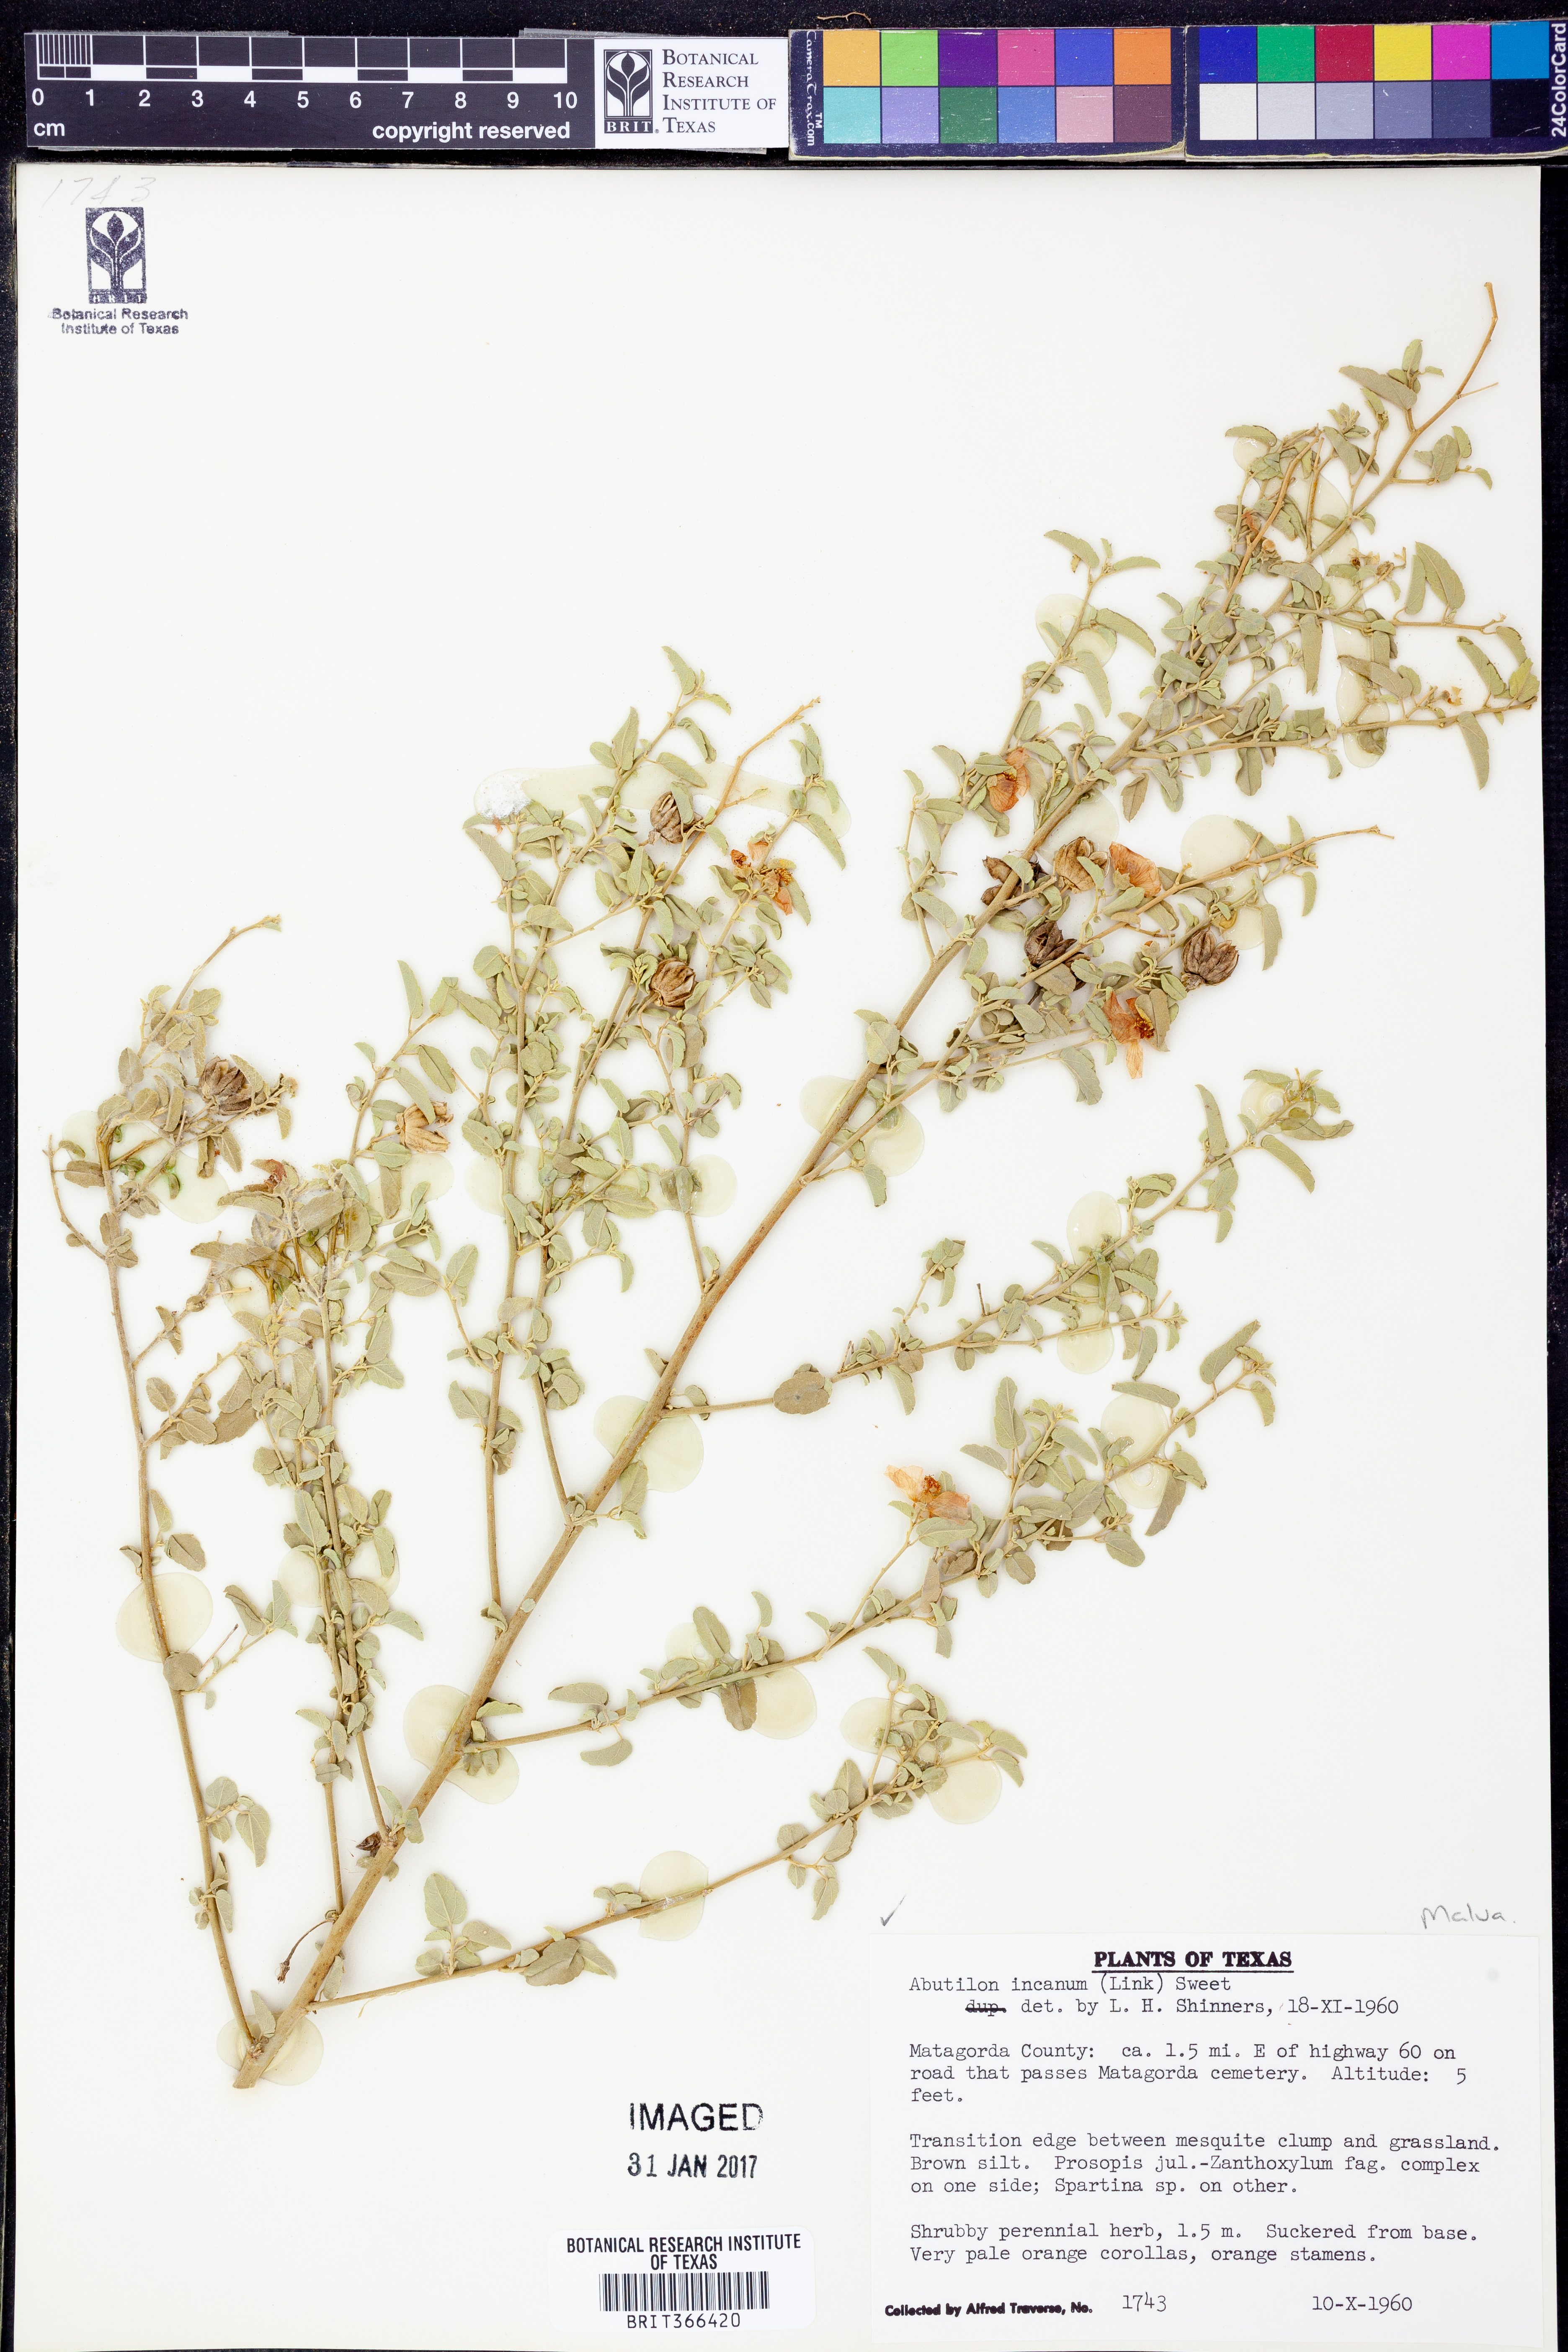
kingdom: Plantae
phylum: Tracheophyta
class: Magnoliopsida
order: Malvales
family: Malvaceae
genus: Abutilon
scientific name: Abutilon incanum
